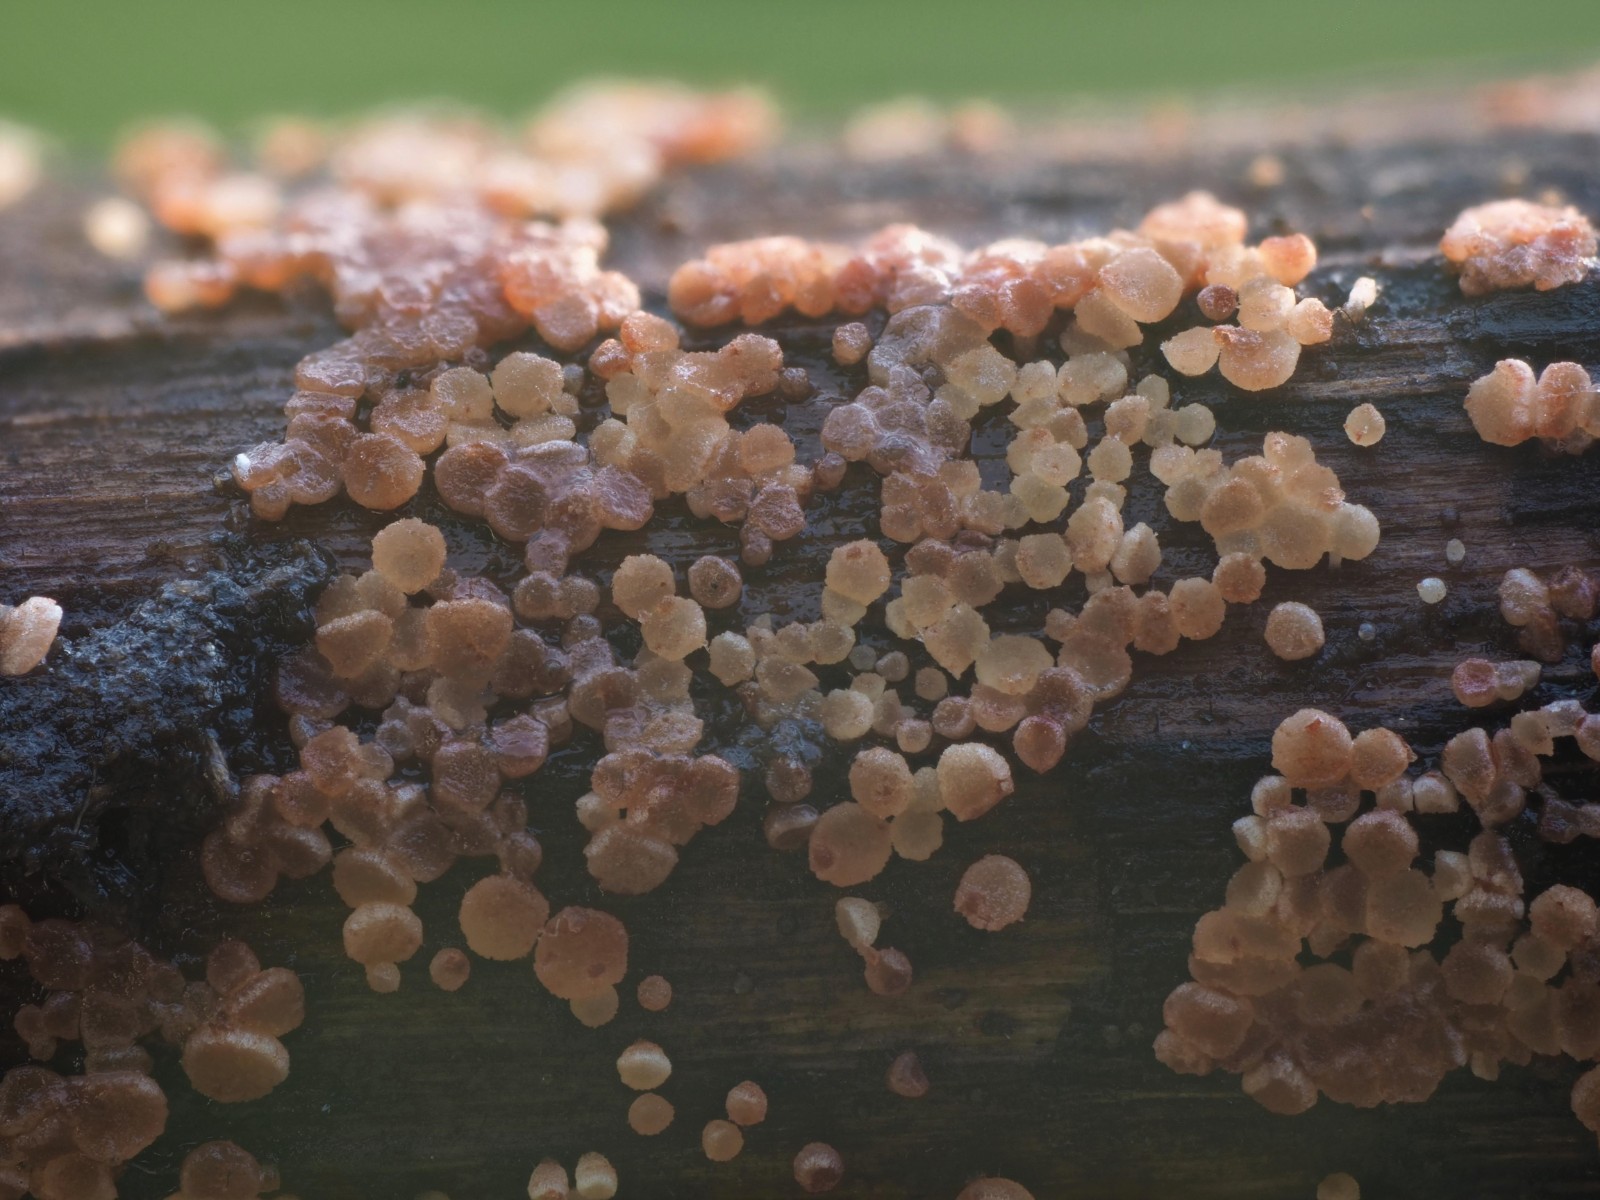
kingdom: Fungi
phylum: Ascomycota
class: Leotiomycetes
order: Helotiales
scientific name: Helotiales
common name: stilkskiveordenen
